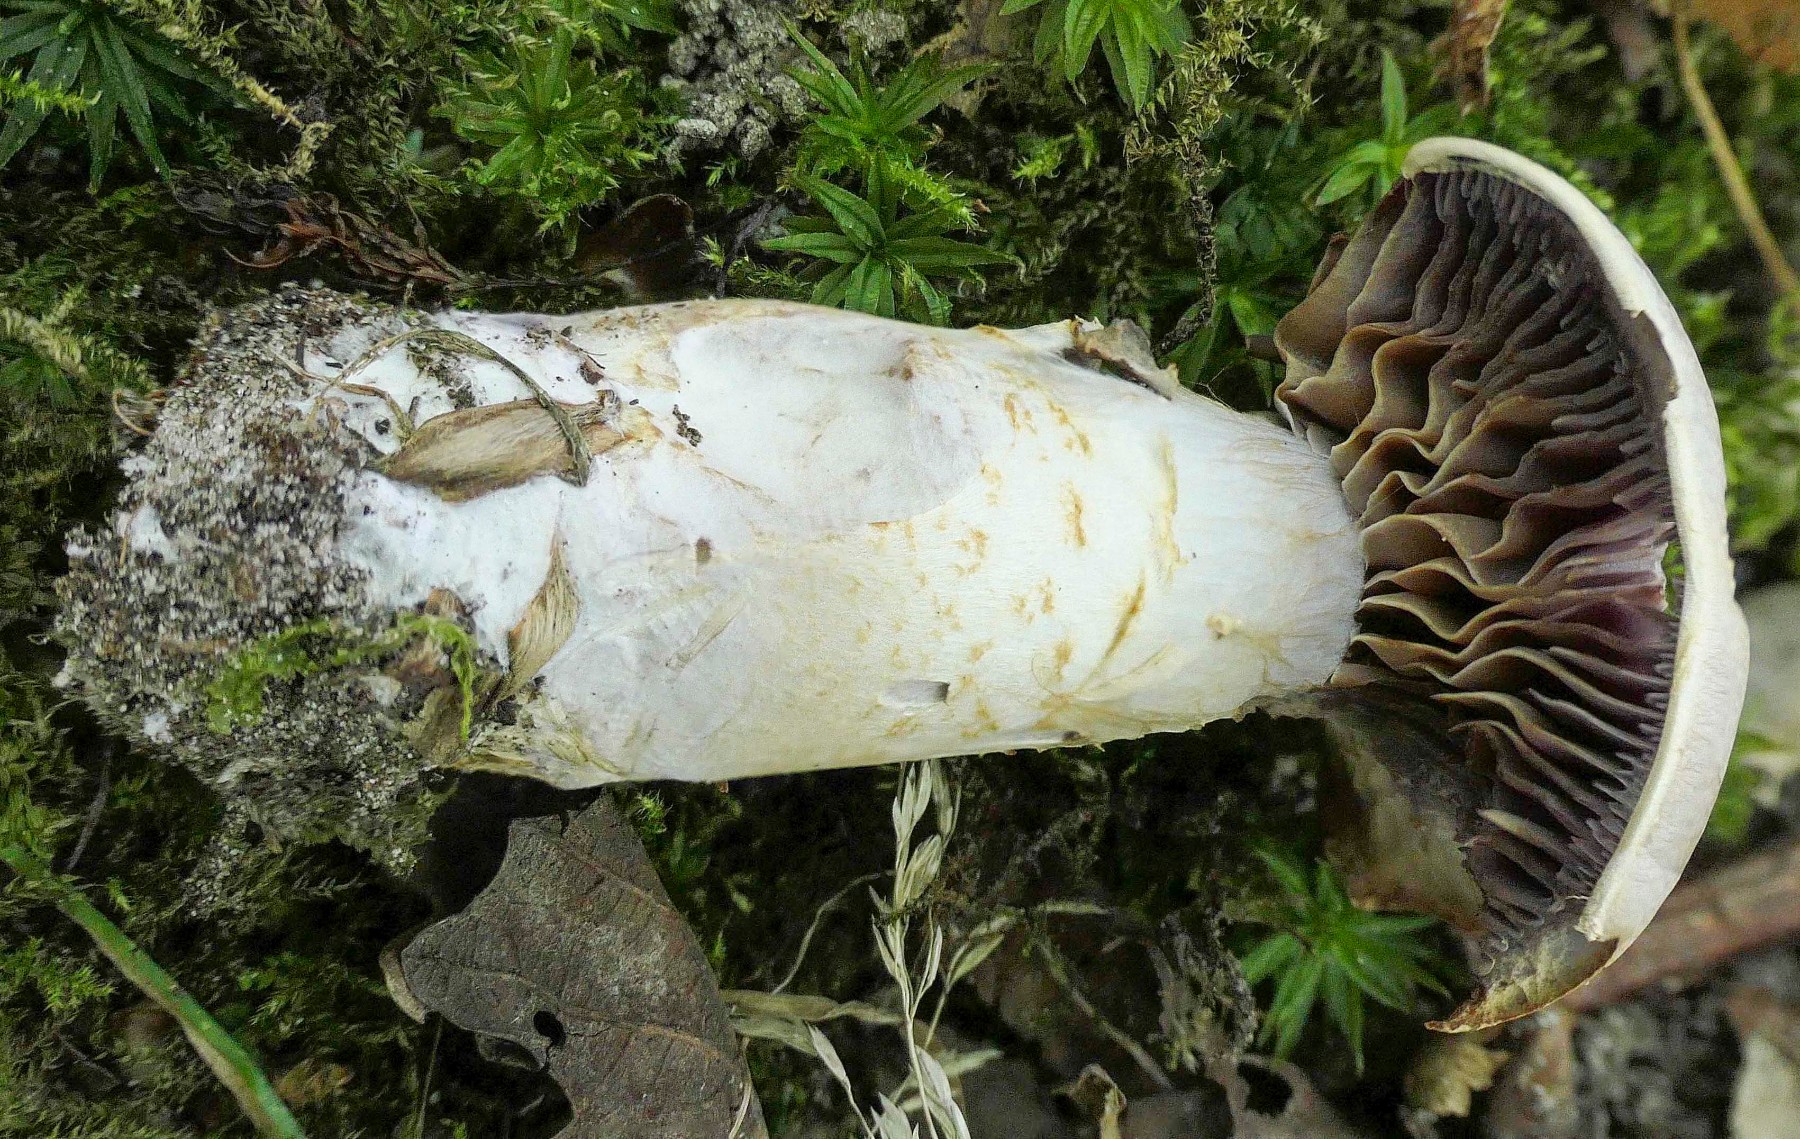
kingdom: Fungi
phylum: Basidiomycota
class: Agaricomycetes
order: Agaricales
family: Cortinariaceae
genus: Cortinarius
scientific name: Cortinarius
